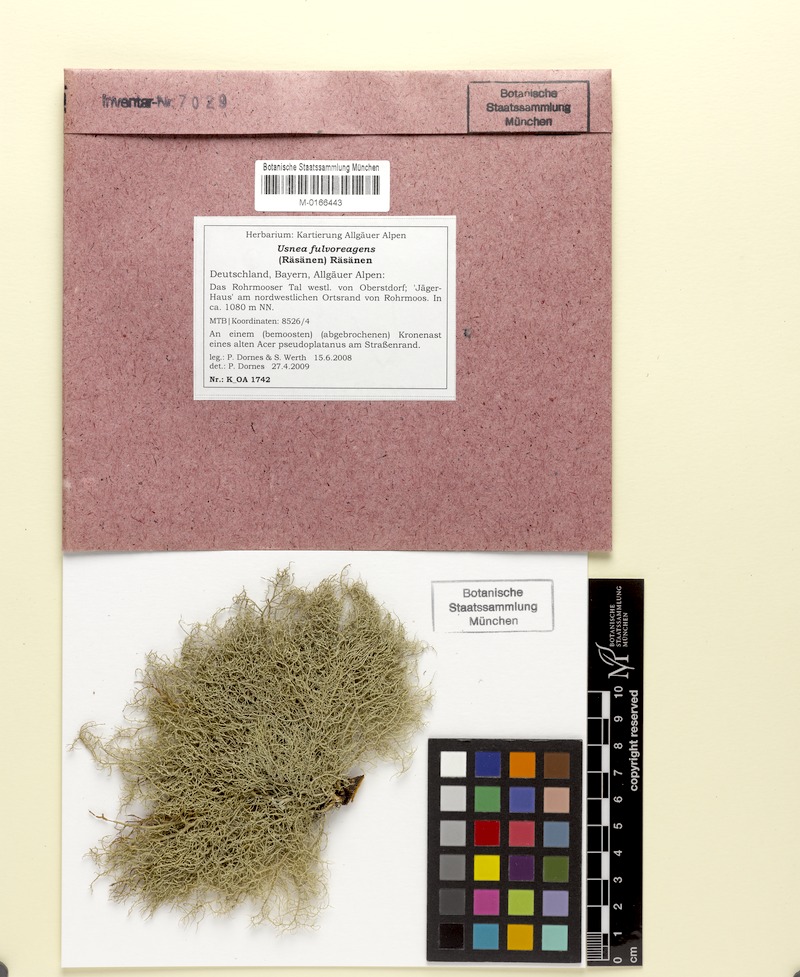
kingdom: Fungi
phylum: Ascomycota
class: Lecanoromycetes
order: Lecanorales
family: Parmeliaceae
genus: Usnea
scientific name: Usnea fulvoreagens
